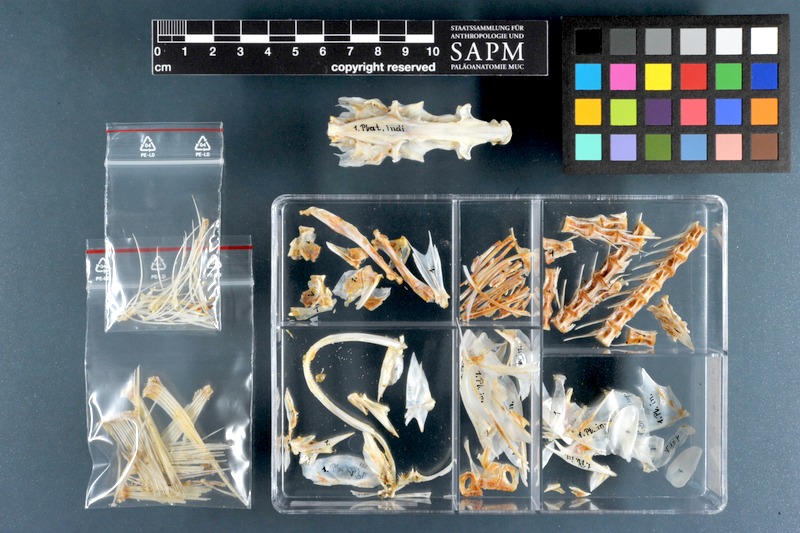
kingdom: Animalia
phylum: Chordata
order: Scorpaeniformes
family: Platycephalidae
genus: Platycephalus
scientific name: Platycephalus indicus
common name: Bartail flathead
